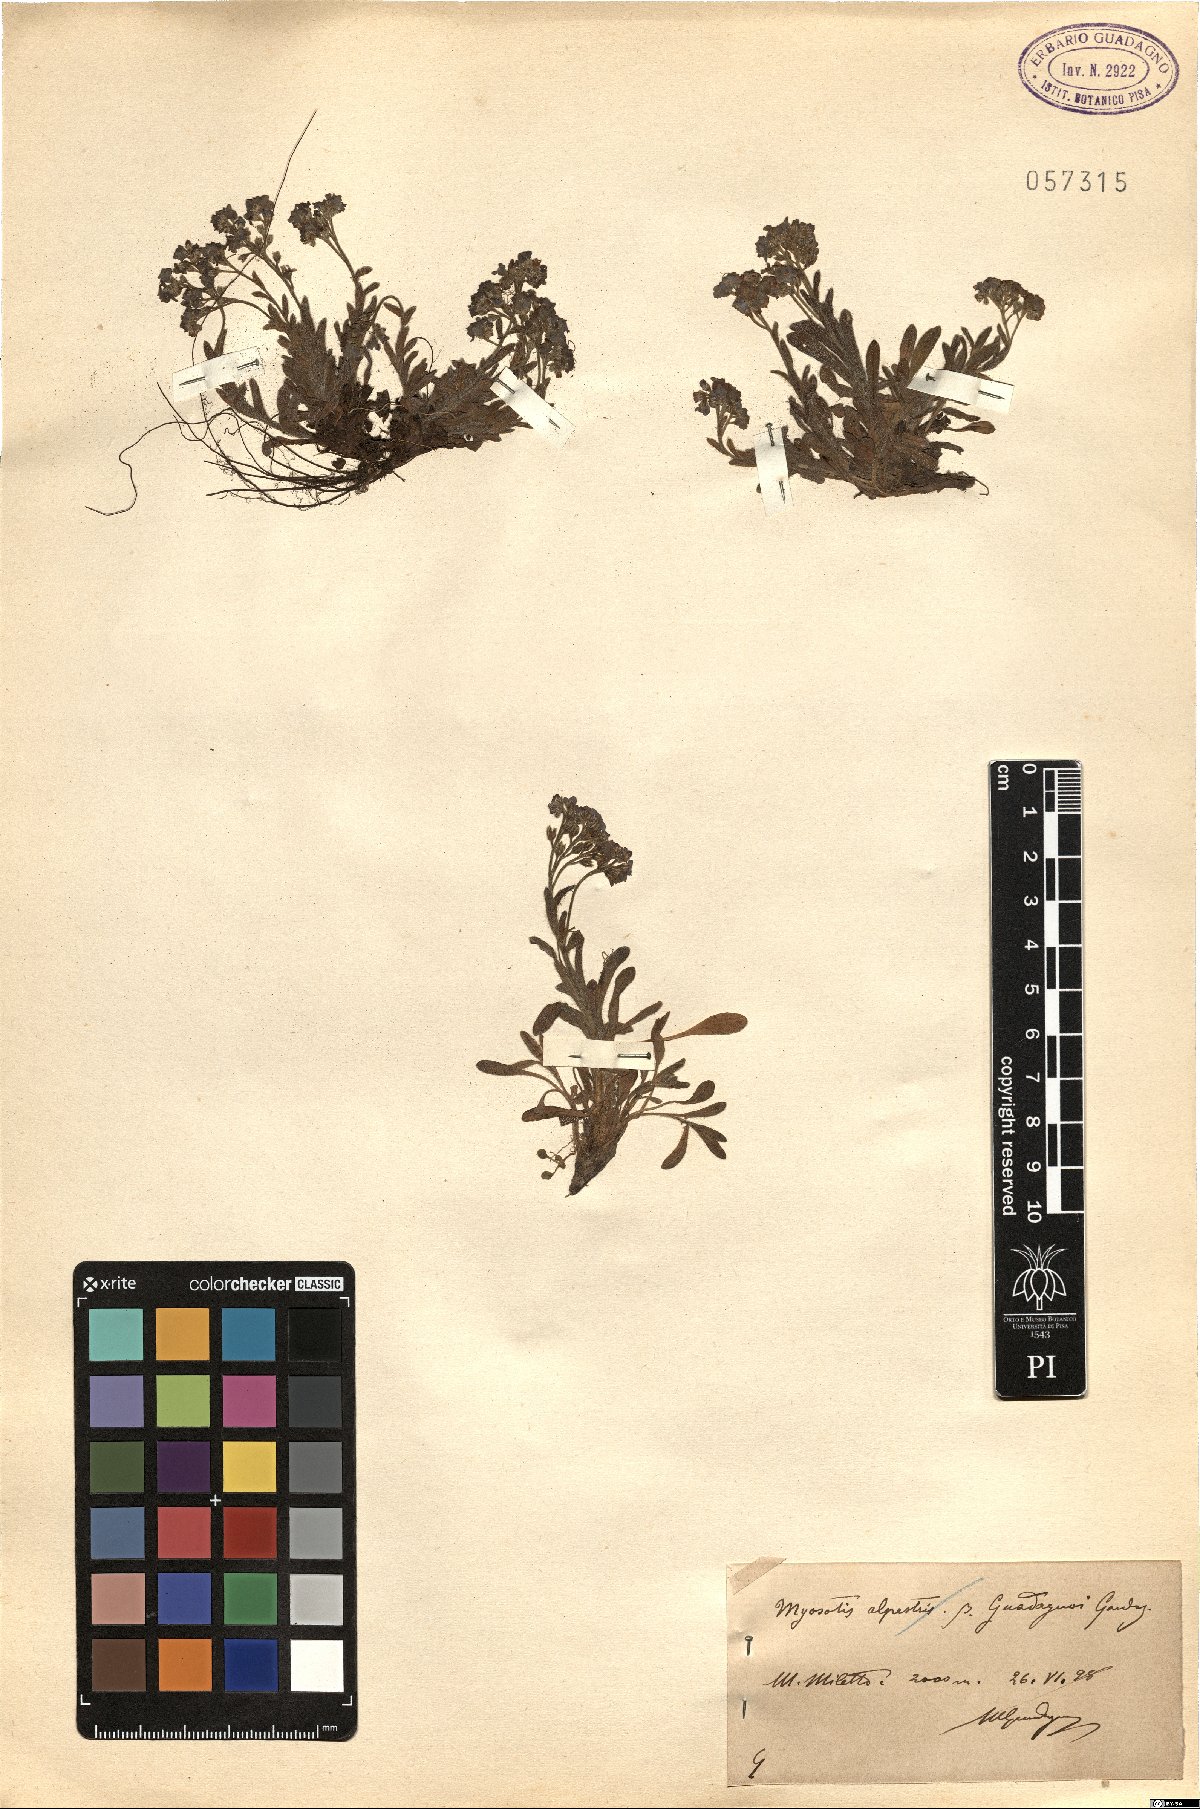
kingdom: Plantae
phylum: Tracheophyta
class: Magnoliopsida
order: Boraginales
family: Boraginaceae
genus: Myosotis
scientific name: Myosotis alpestris
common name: Alpine forget-me-not
